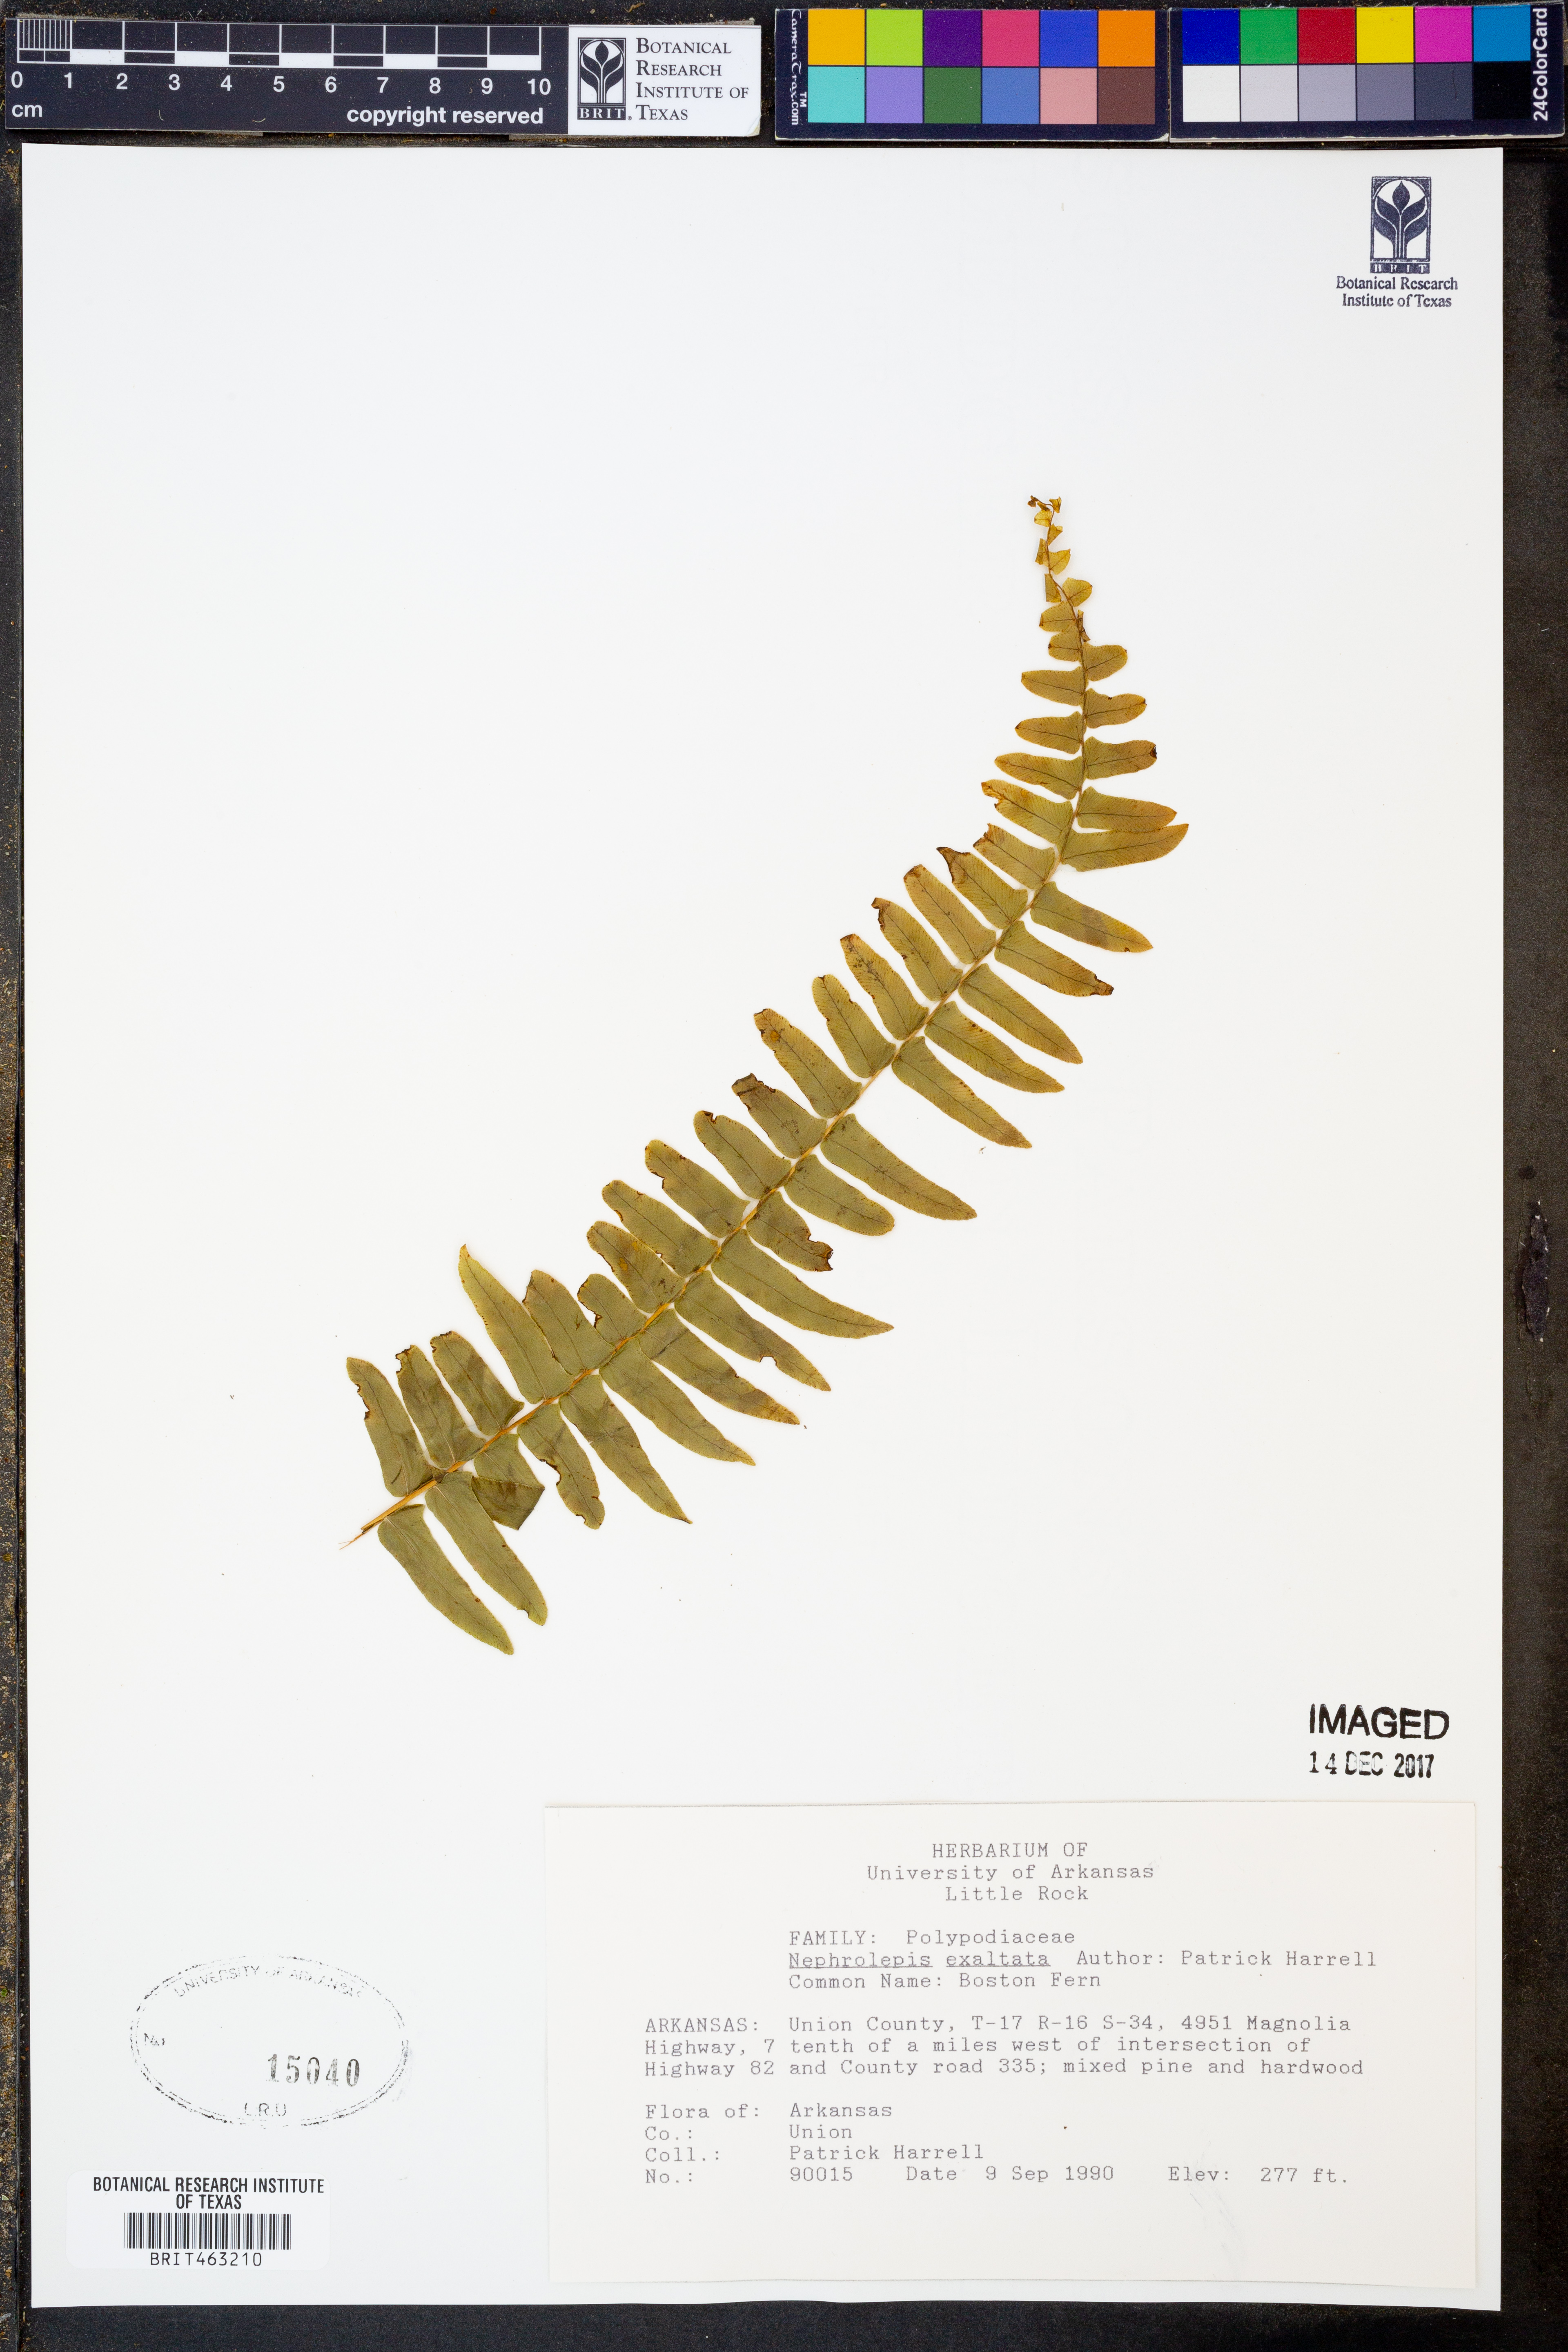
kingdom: Plantae
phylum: Tracheophyta
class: Polypodiopsida
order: Polypodiales
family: Nephrolepidaceae
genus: Nephrolepis
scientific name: Nephrolepis exaltata
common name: Sword fern
